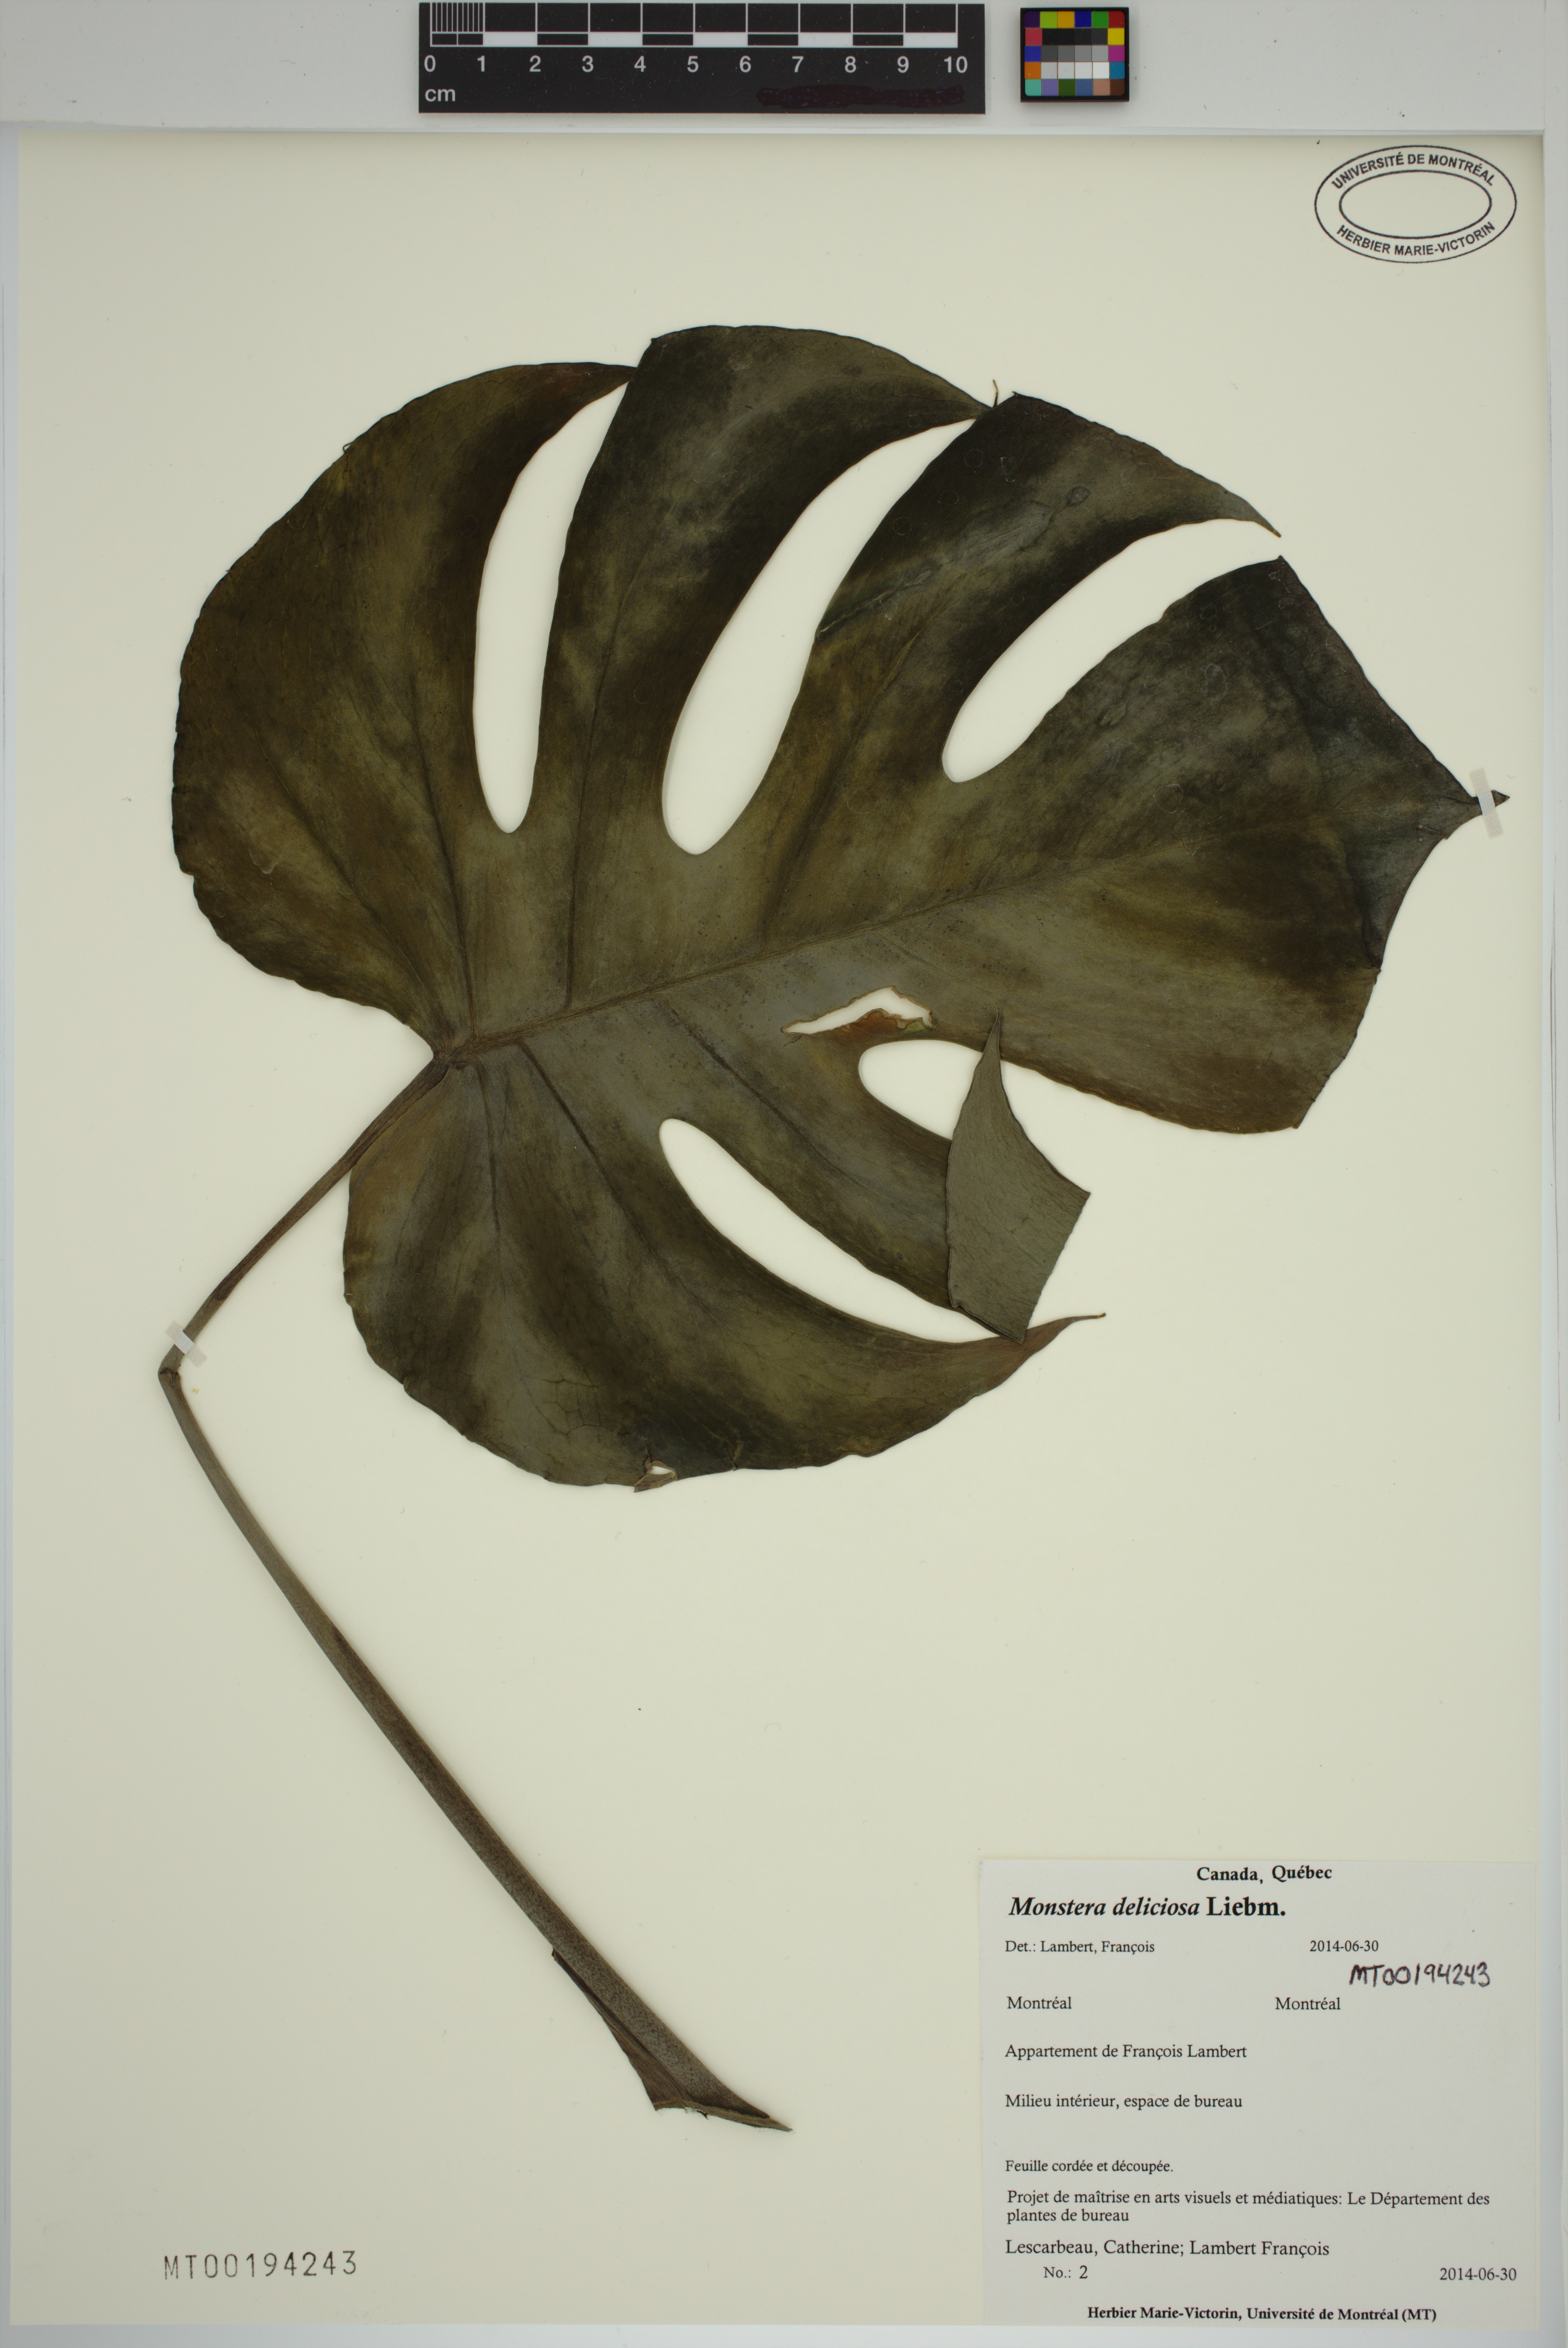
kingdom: Plantae
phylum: Tracheophyta
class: Liliopsida
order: Alismatales
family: Araceae
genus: Monstera
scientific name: Monstera deliciosa
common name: Cut-leaf-philodendron
